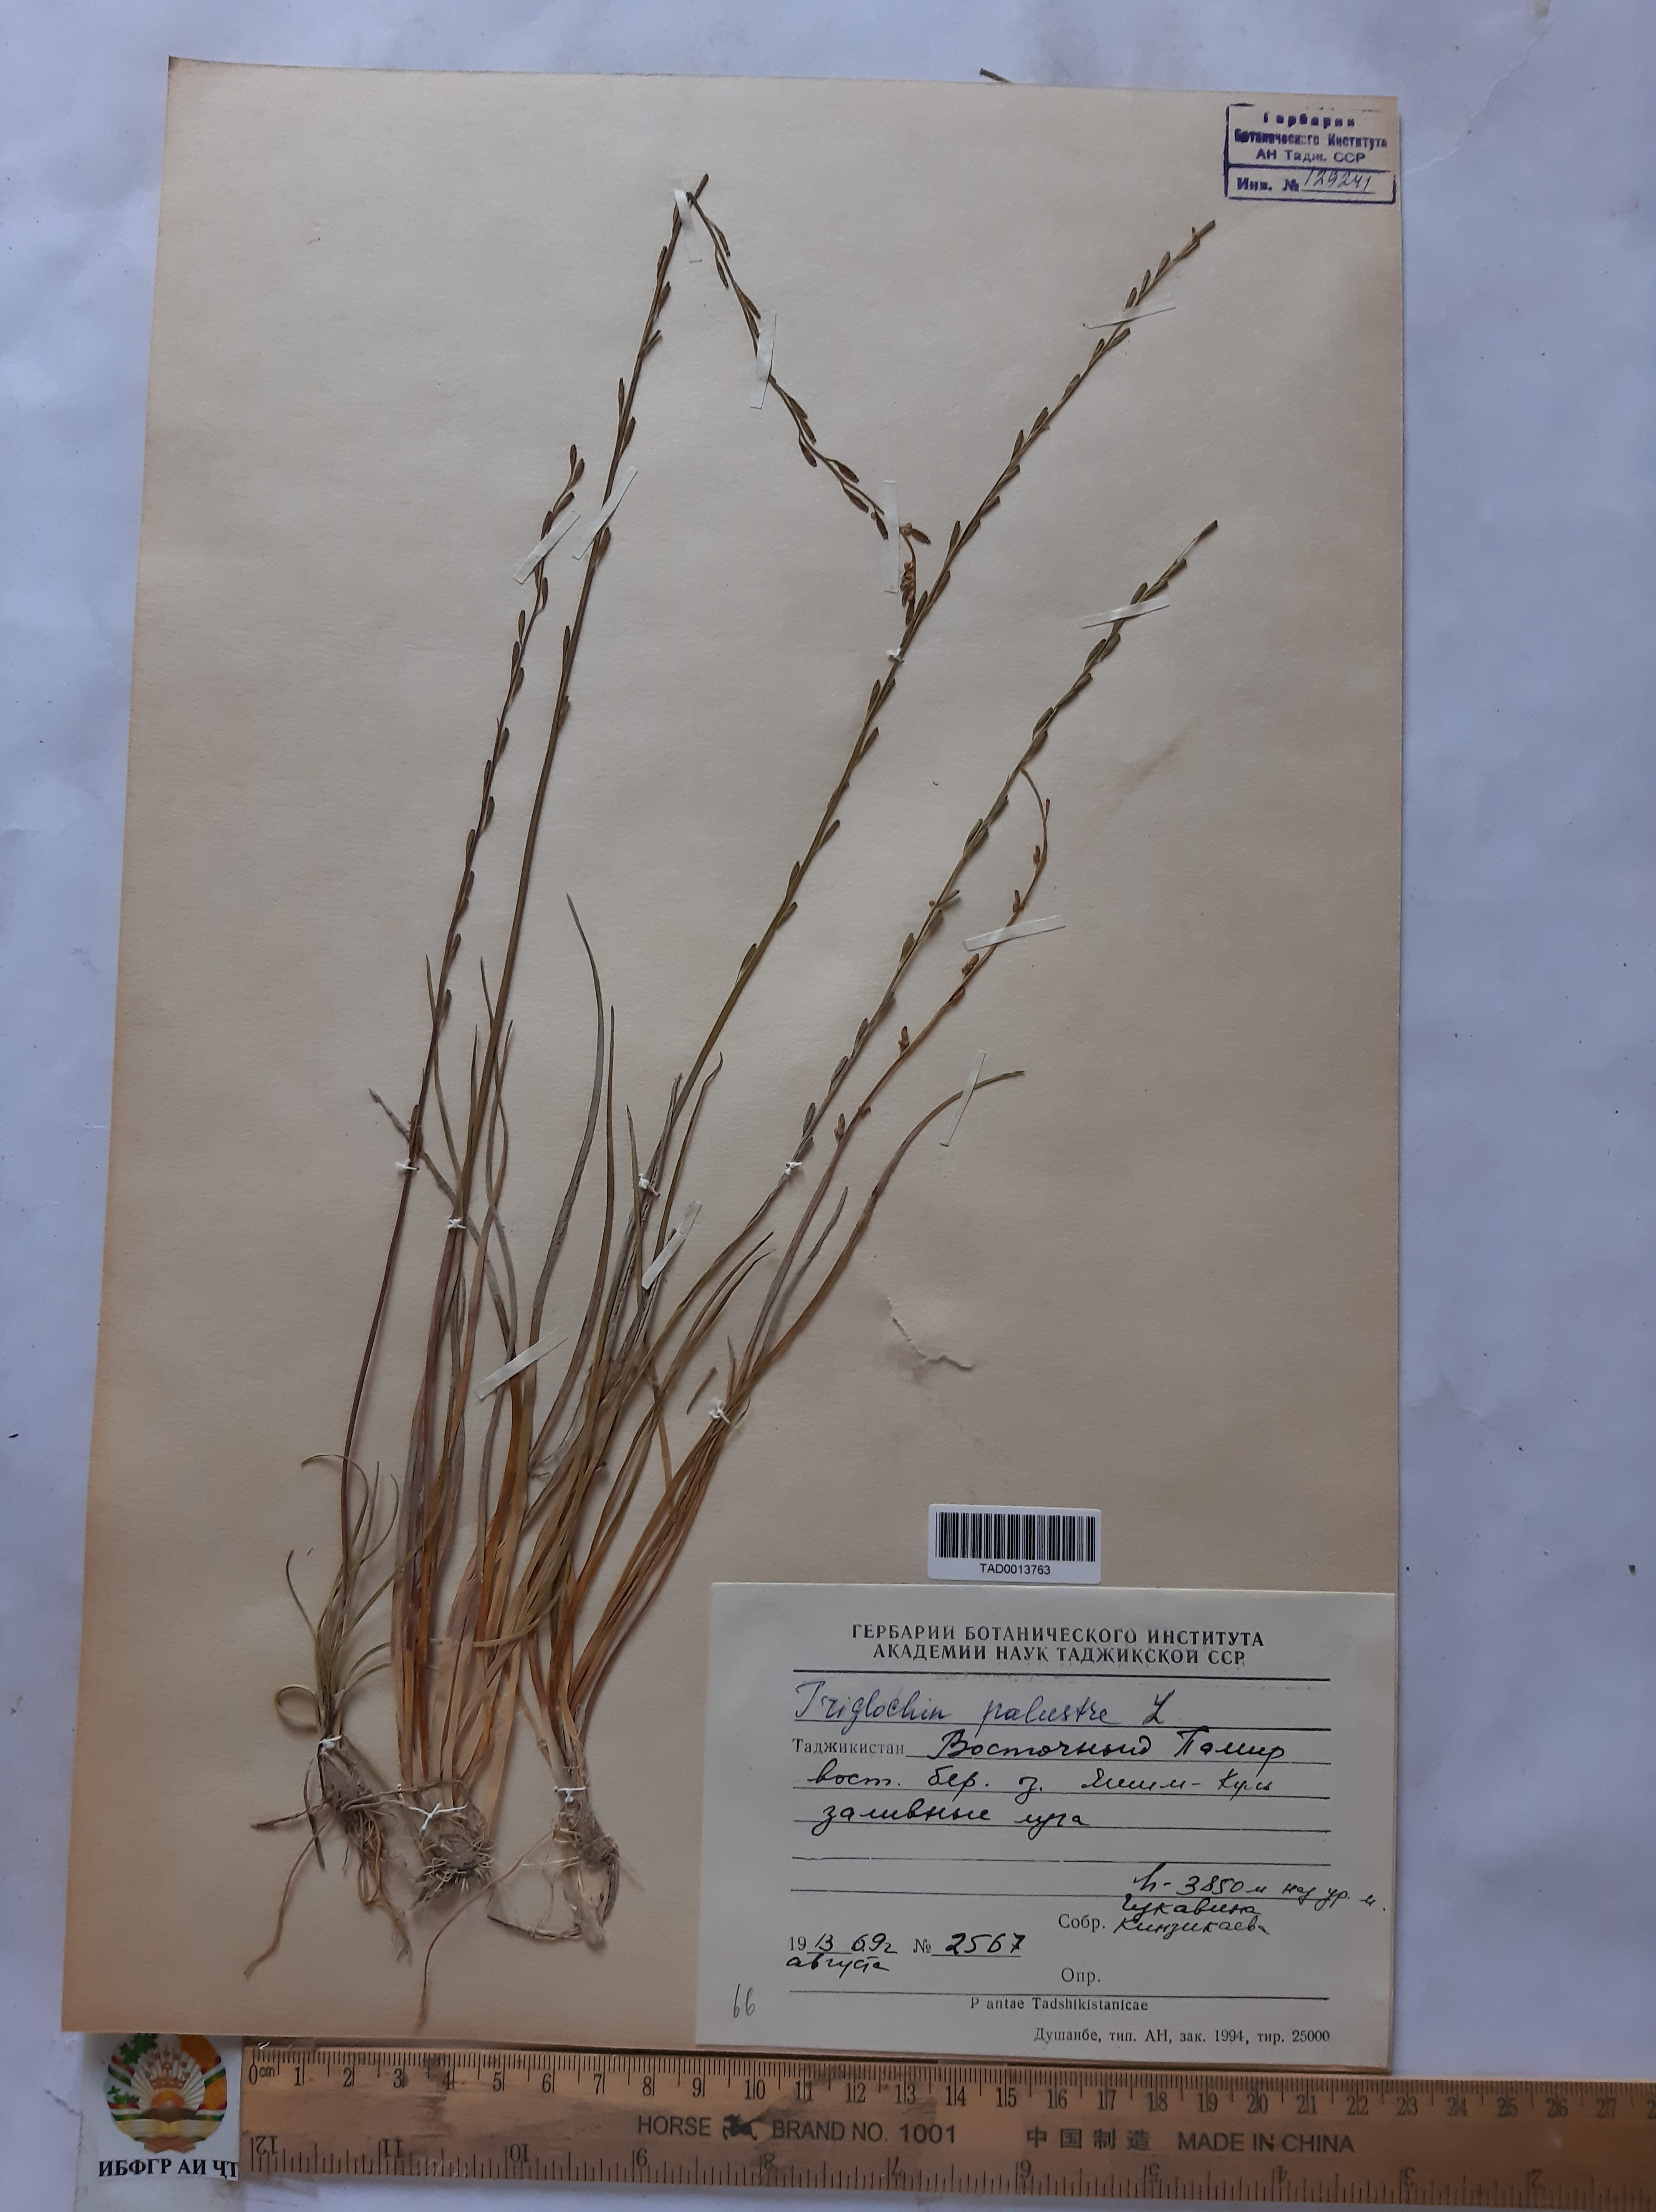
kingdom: Plantae
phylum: Tracheophyta
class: Liliopsida
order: Alismatales
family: Juncaginaceae
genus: Triglochin
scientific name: Triglochin palustris
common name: Marsh arrowgrass
